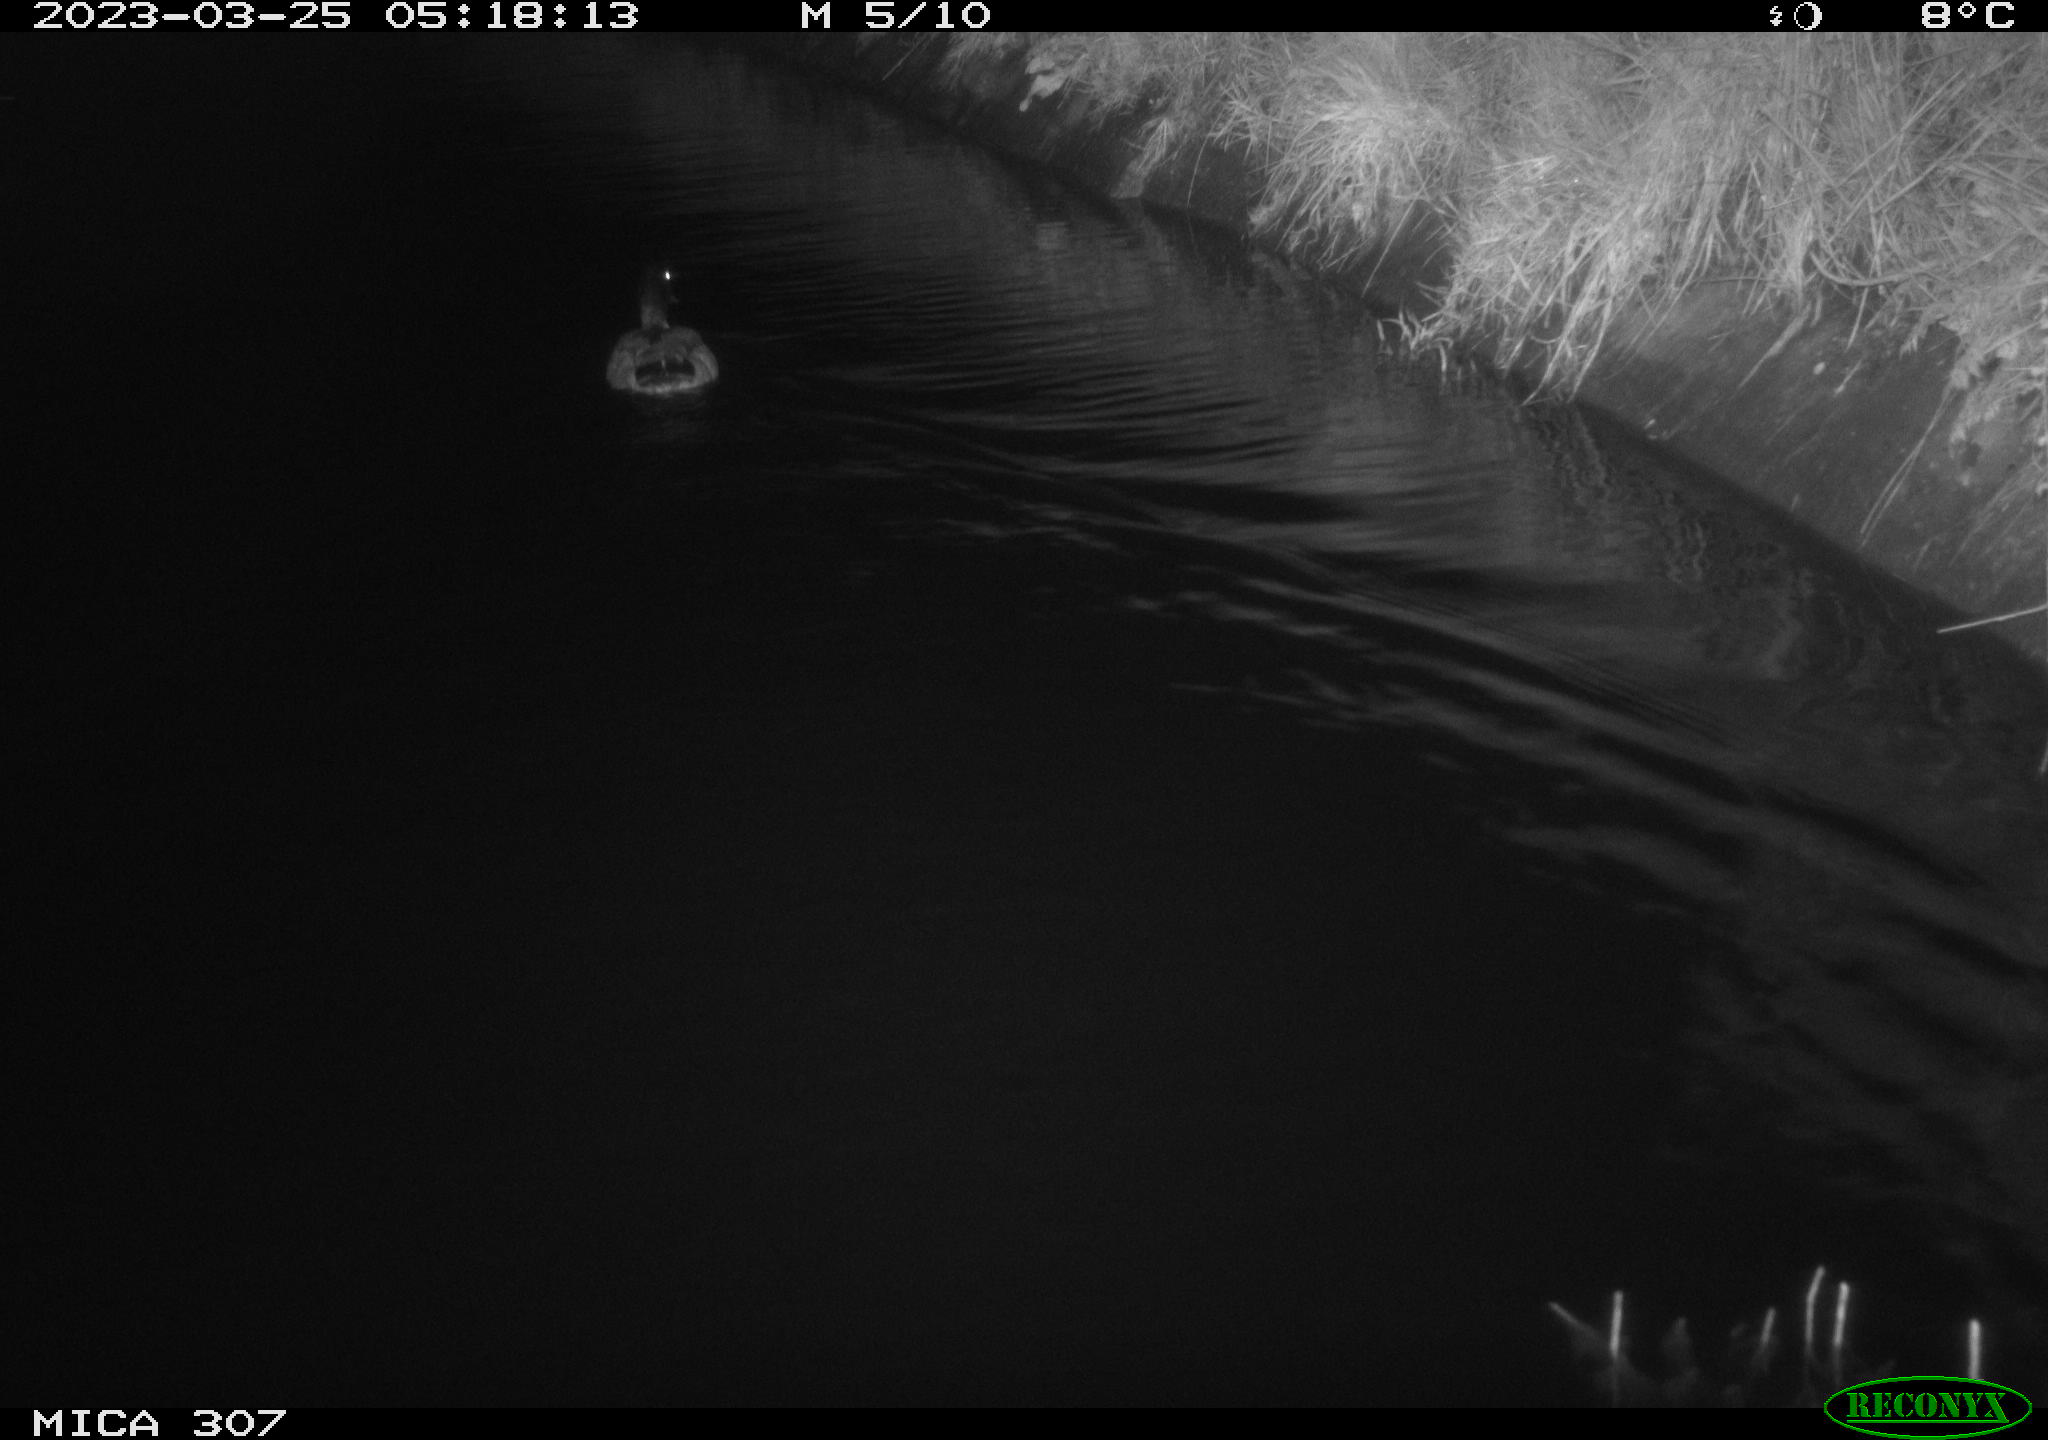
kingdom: Animalia
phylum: Chordata
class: Aves
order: Anseriformes
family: Anatidae
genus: Anas
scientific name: Anas
